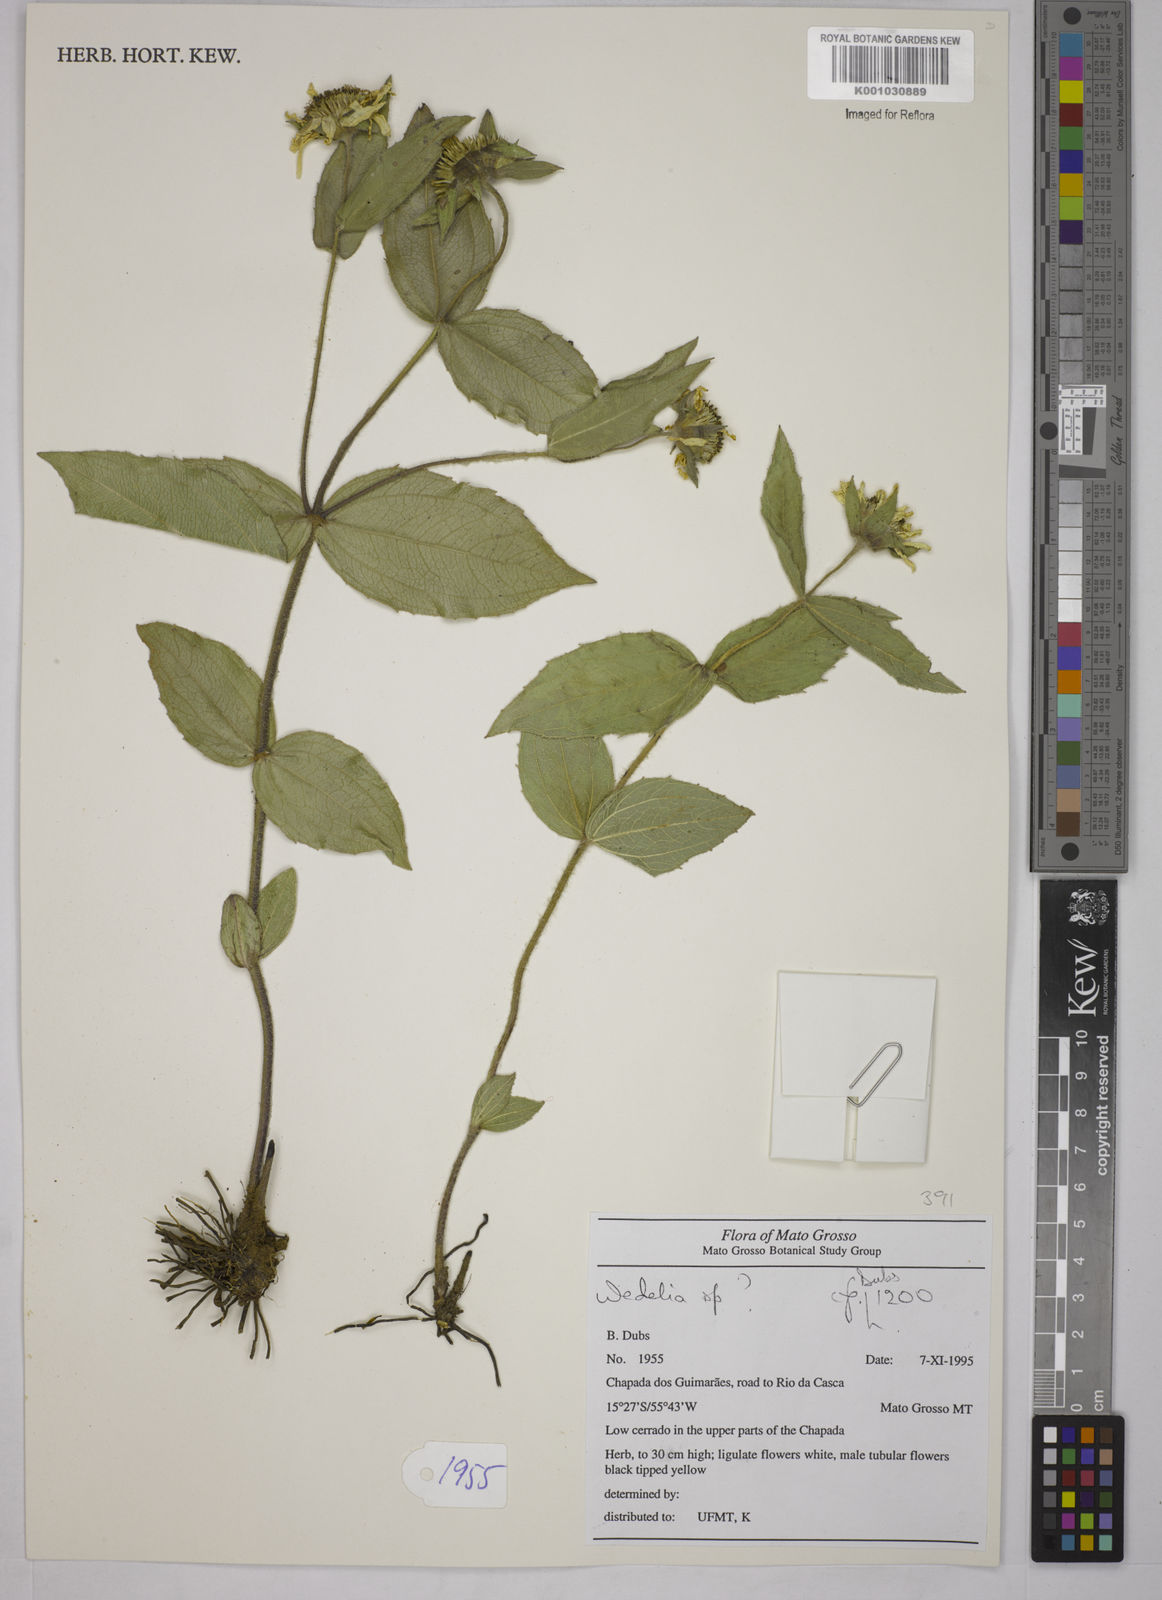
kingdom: Plantae
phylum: Tracheophyta
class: Magnoliopsida
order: Asterales
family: Asteraceae
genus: Wedelia
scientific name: Wedelia
